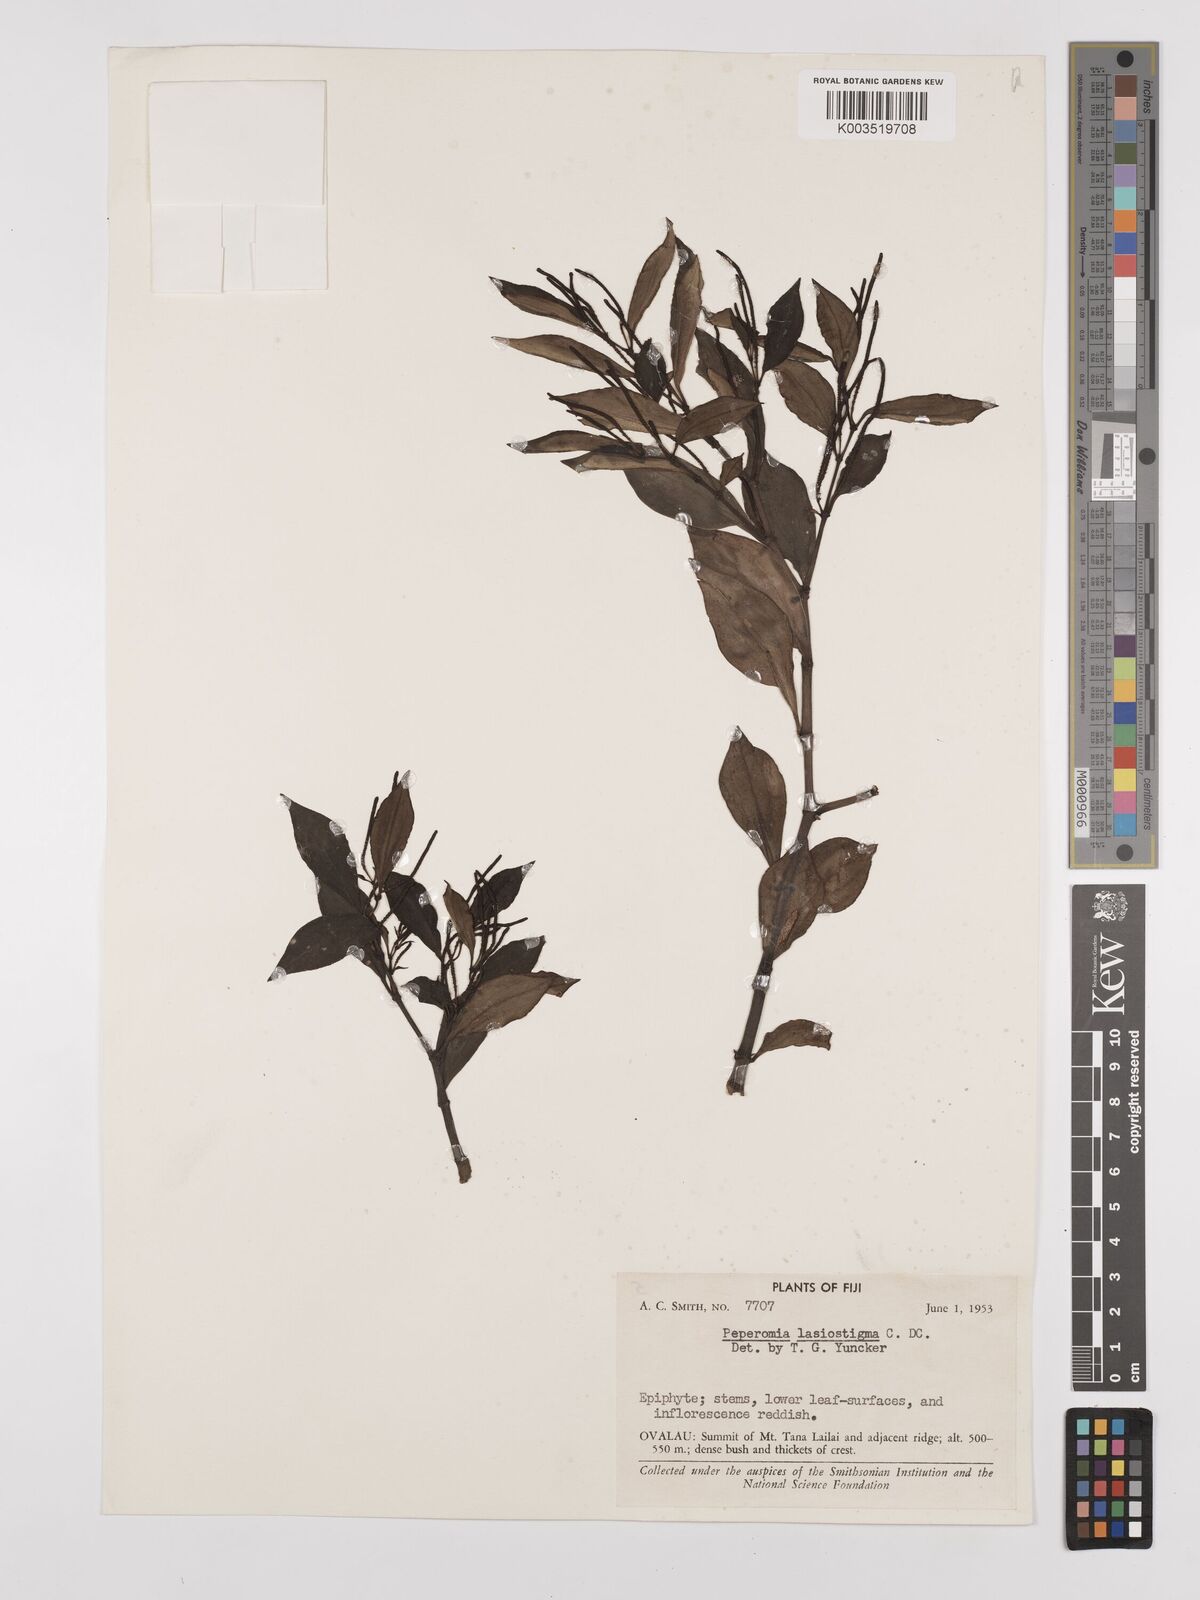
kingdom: Plantae
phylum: Tracheophyta
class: Magnoliopsida
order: Piperales
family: Piperaceae
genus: Peperomia
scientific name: Peperomia lasiostigma
